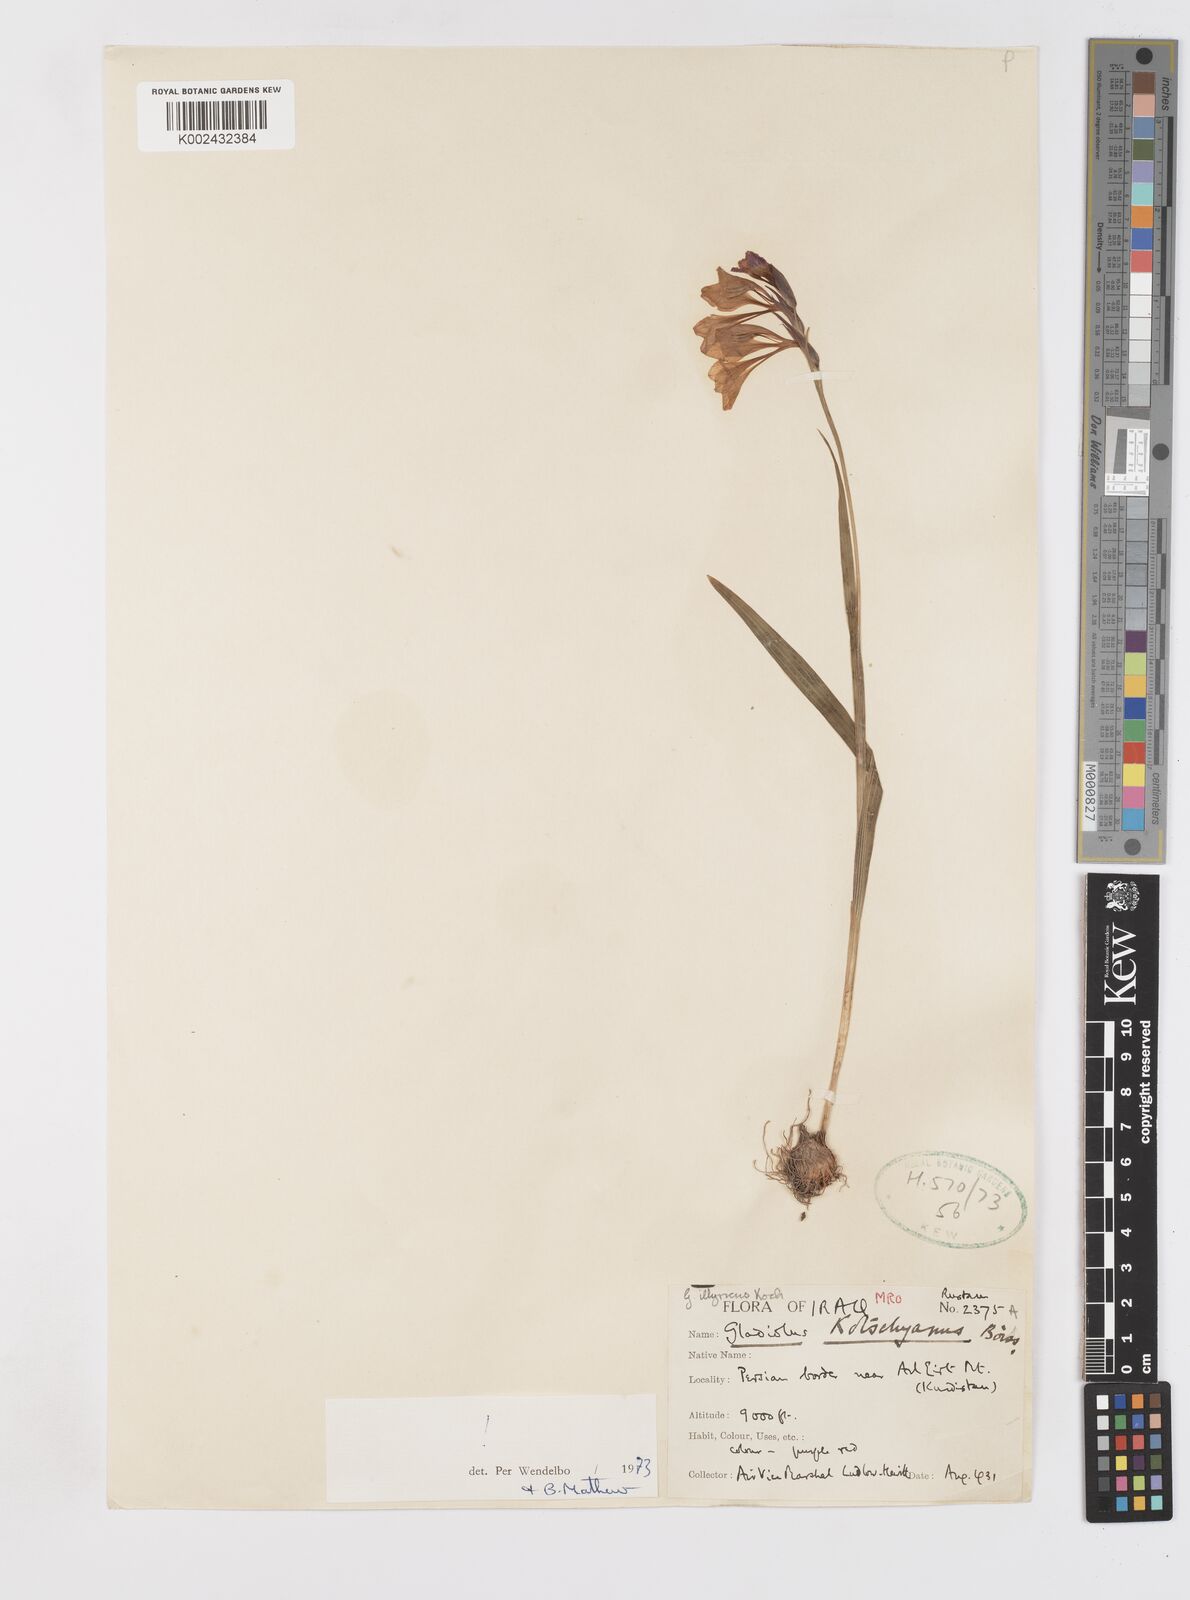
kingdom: Plantae
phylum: Tracheophyta
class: Liliopsida
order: Asparagales
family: Iridaceae
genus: Gladiolus
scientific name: Gladiolus kotschyanus
